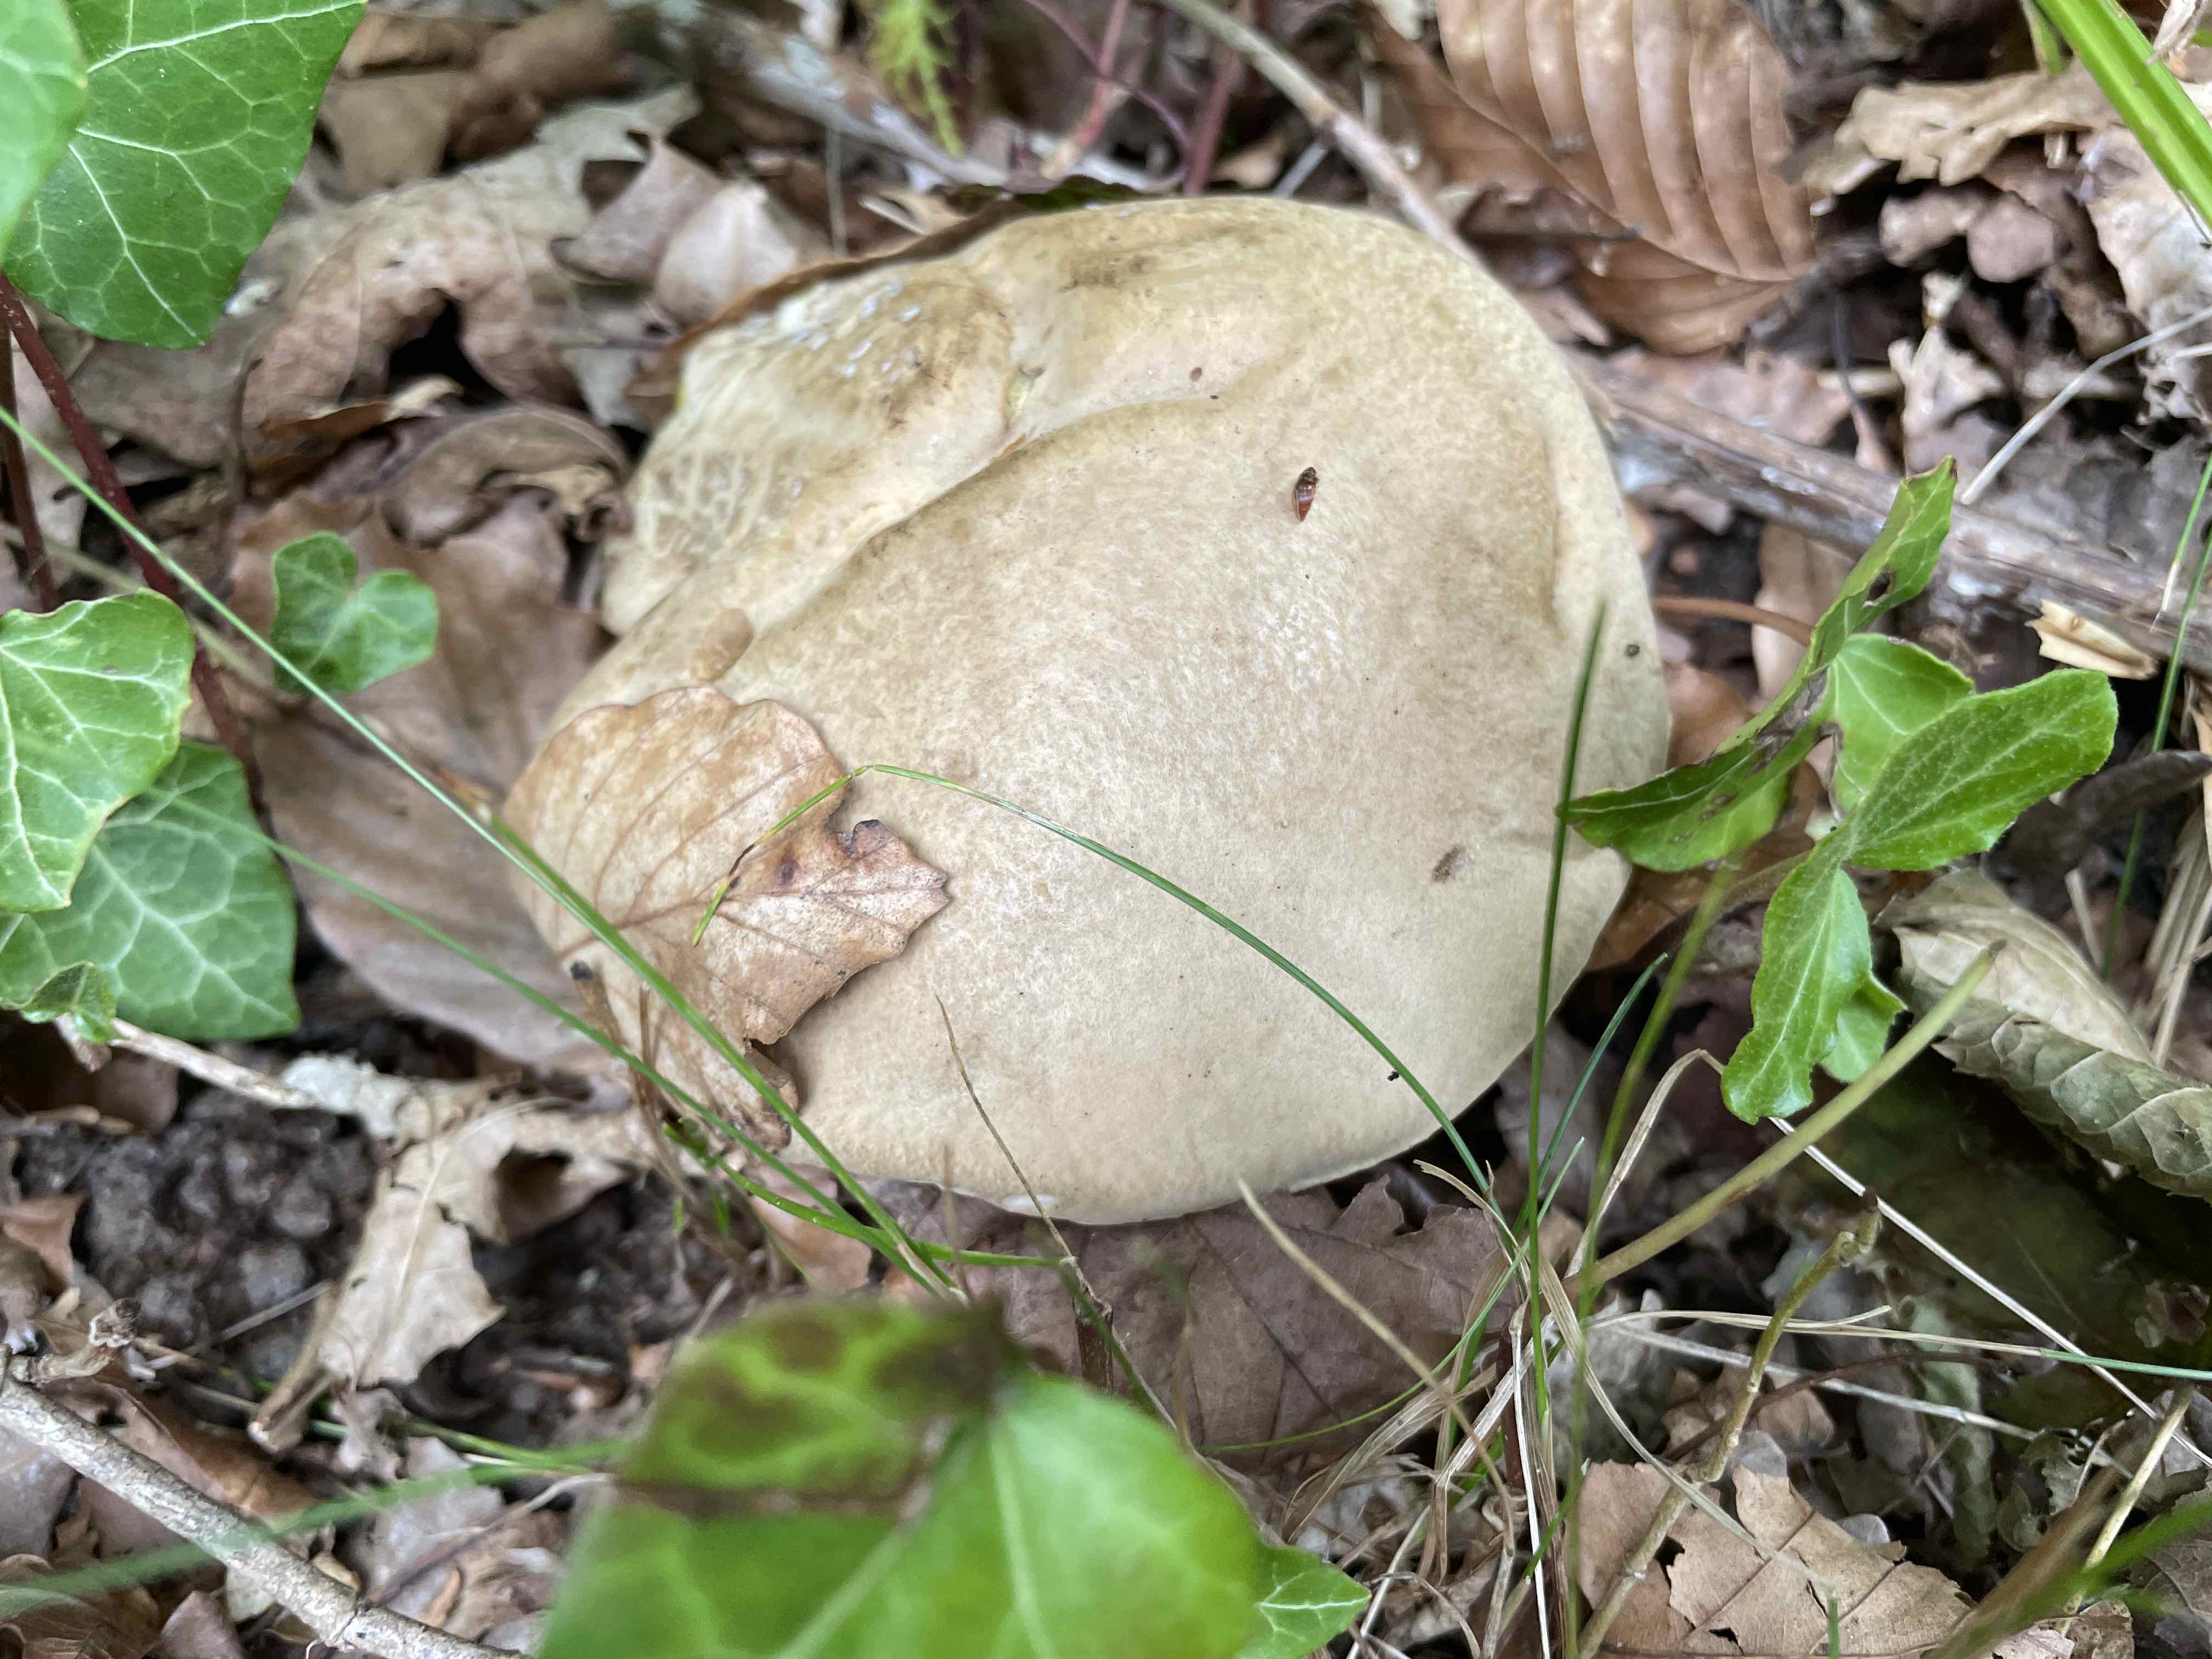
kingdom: Fungi
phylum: Basidiomycota
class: Agaricomycetes
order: Boletales
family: Boletaceae
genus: Caloboletus
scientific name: Caloboletus radicans
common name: rod-rørhat
